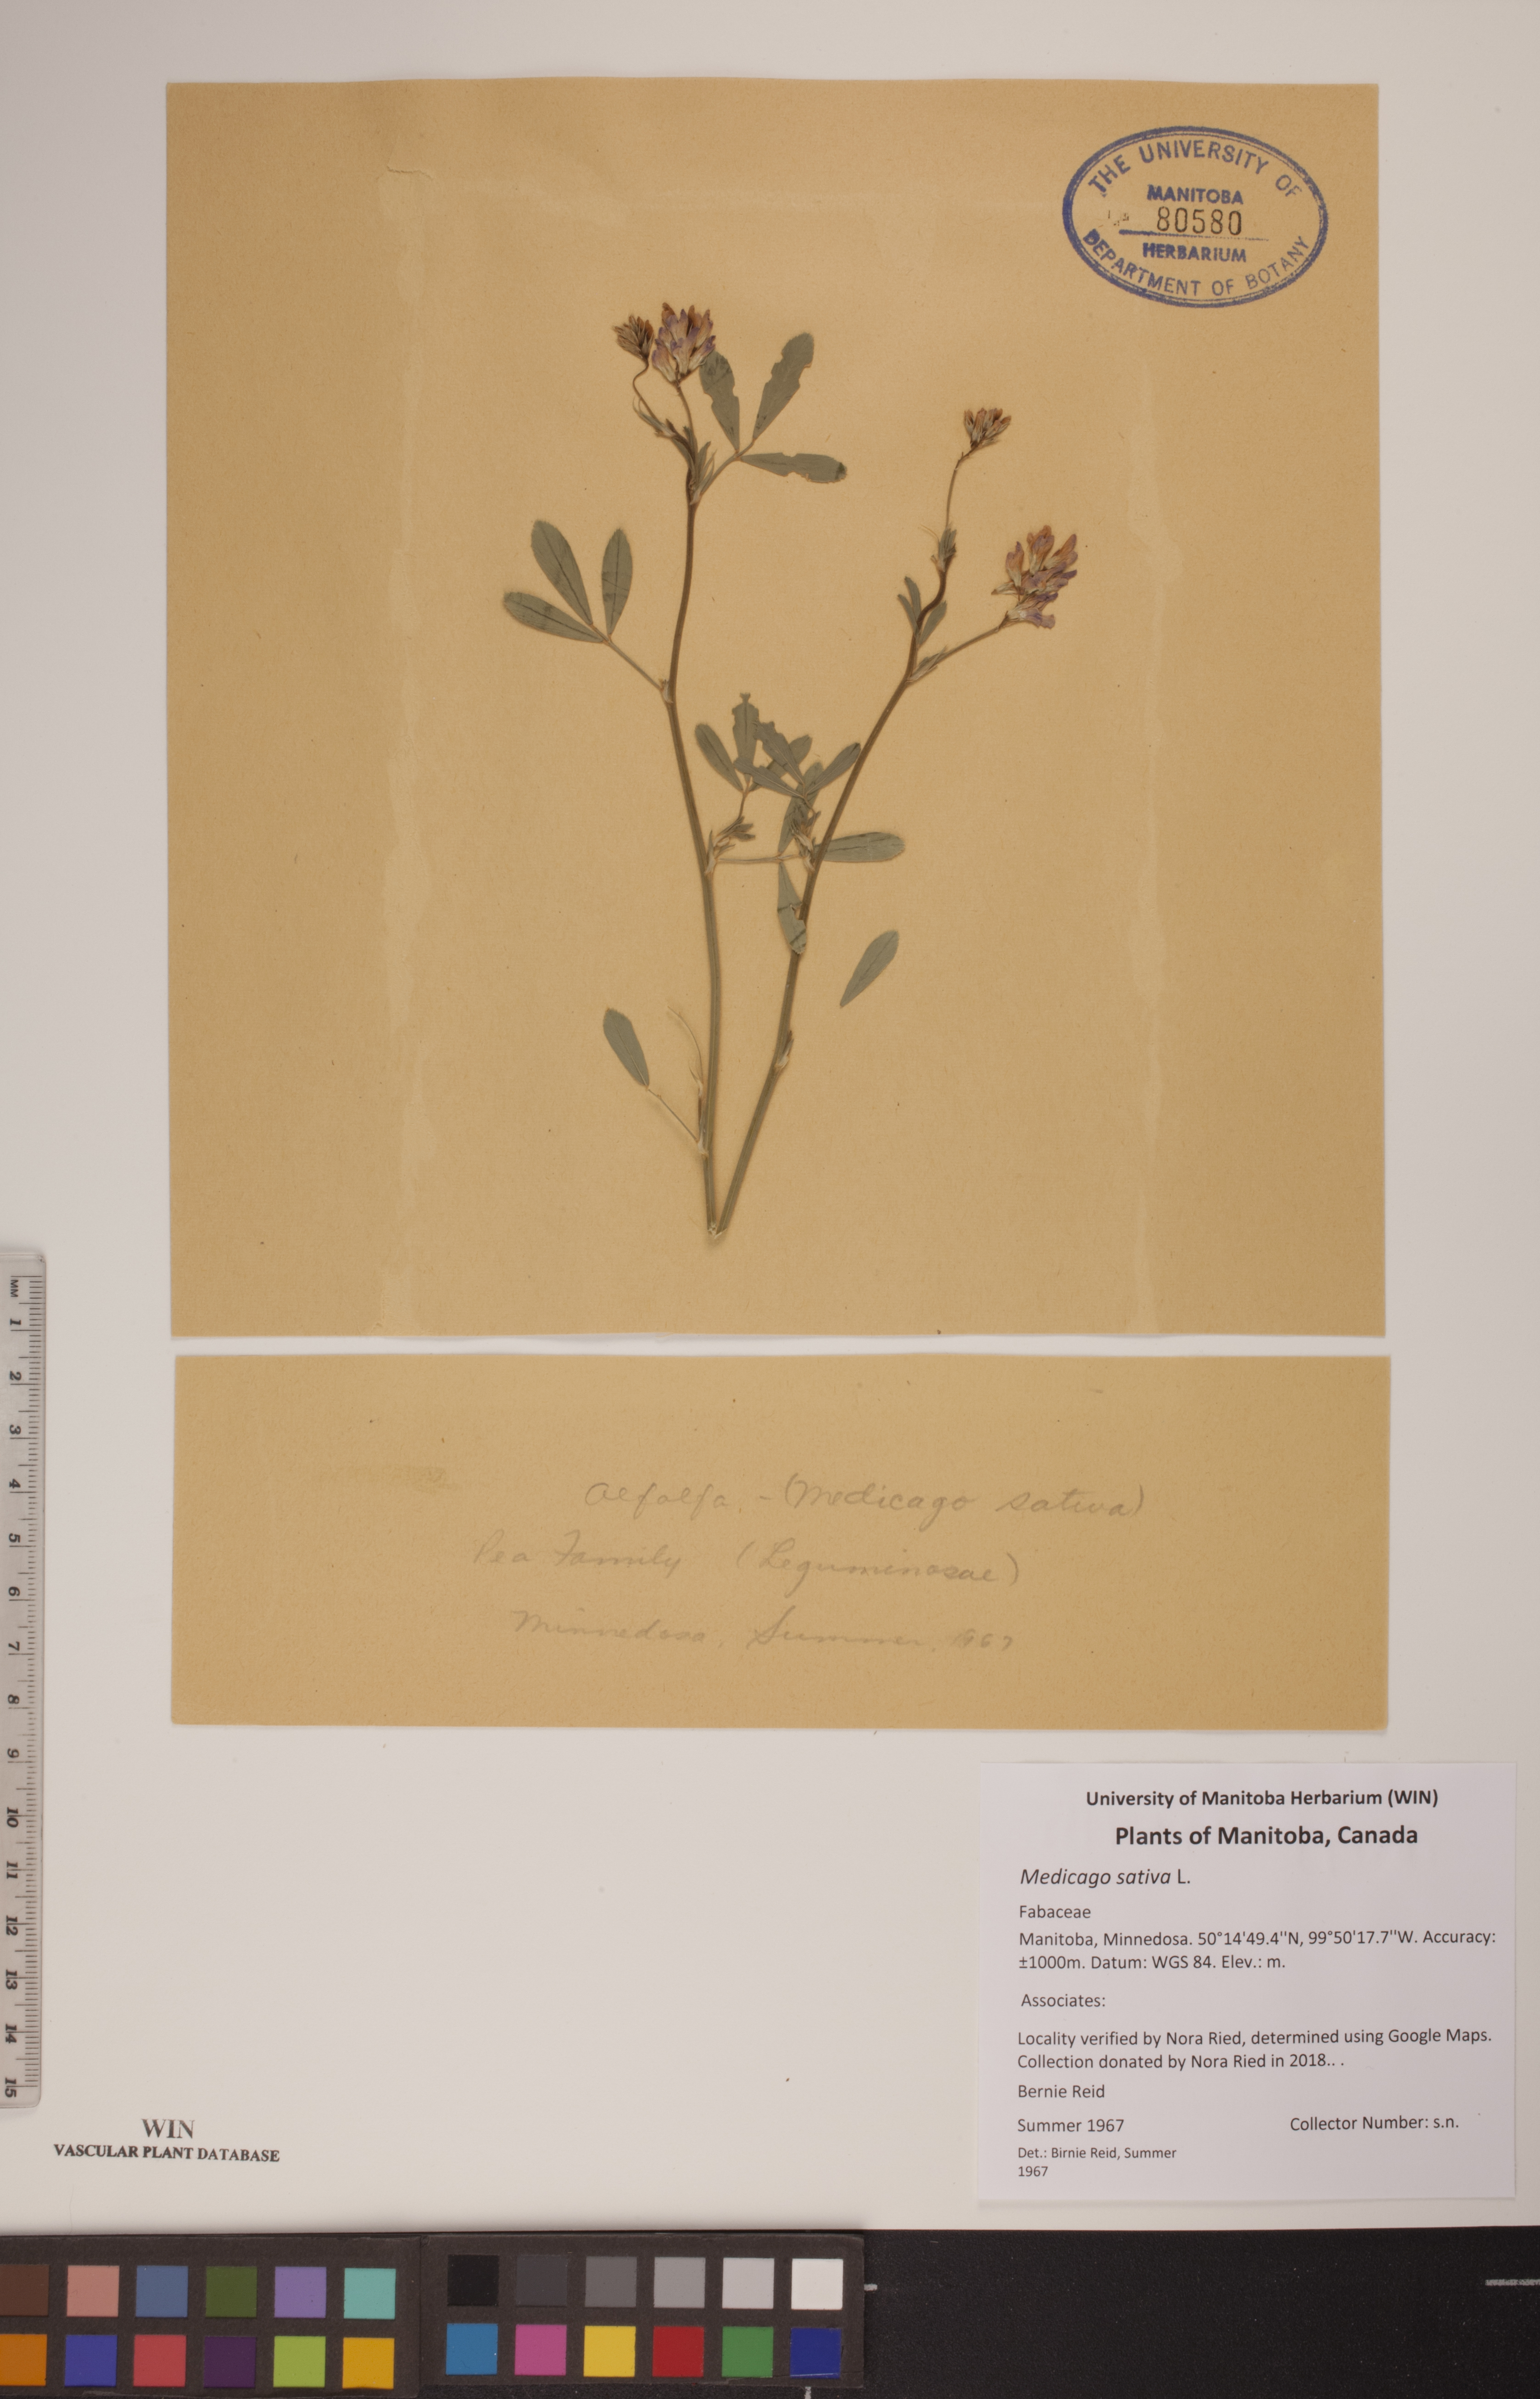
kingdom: Plantae
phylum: Tracheophyta
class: Magnoliopsida
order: Fabales
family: Fabaceae
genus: Medicago
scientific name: Medicago sativa
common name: Alfalfa
